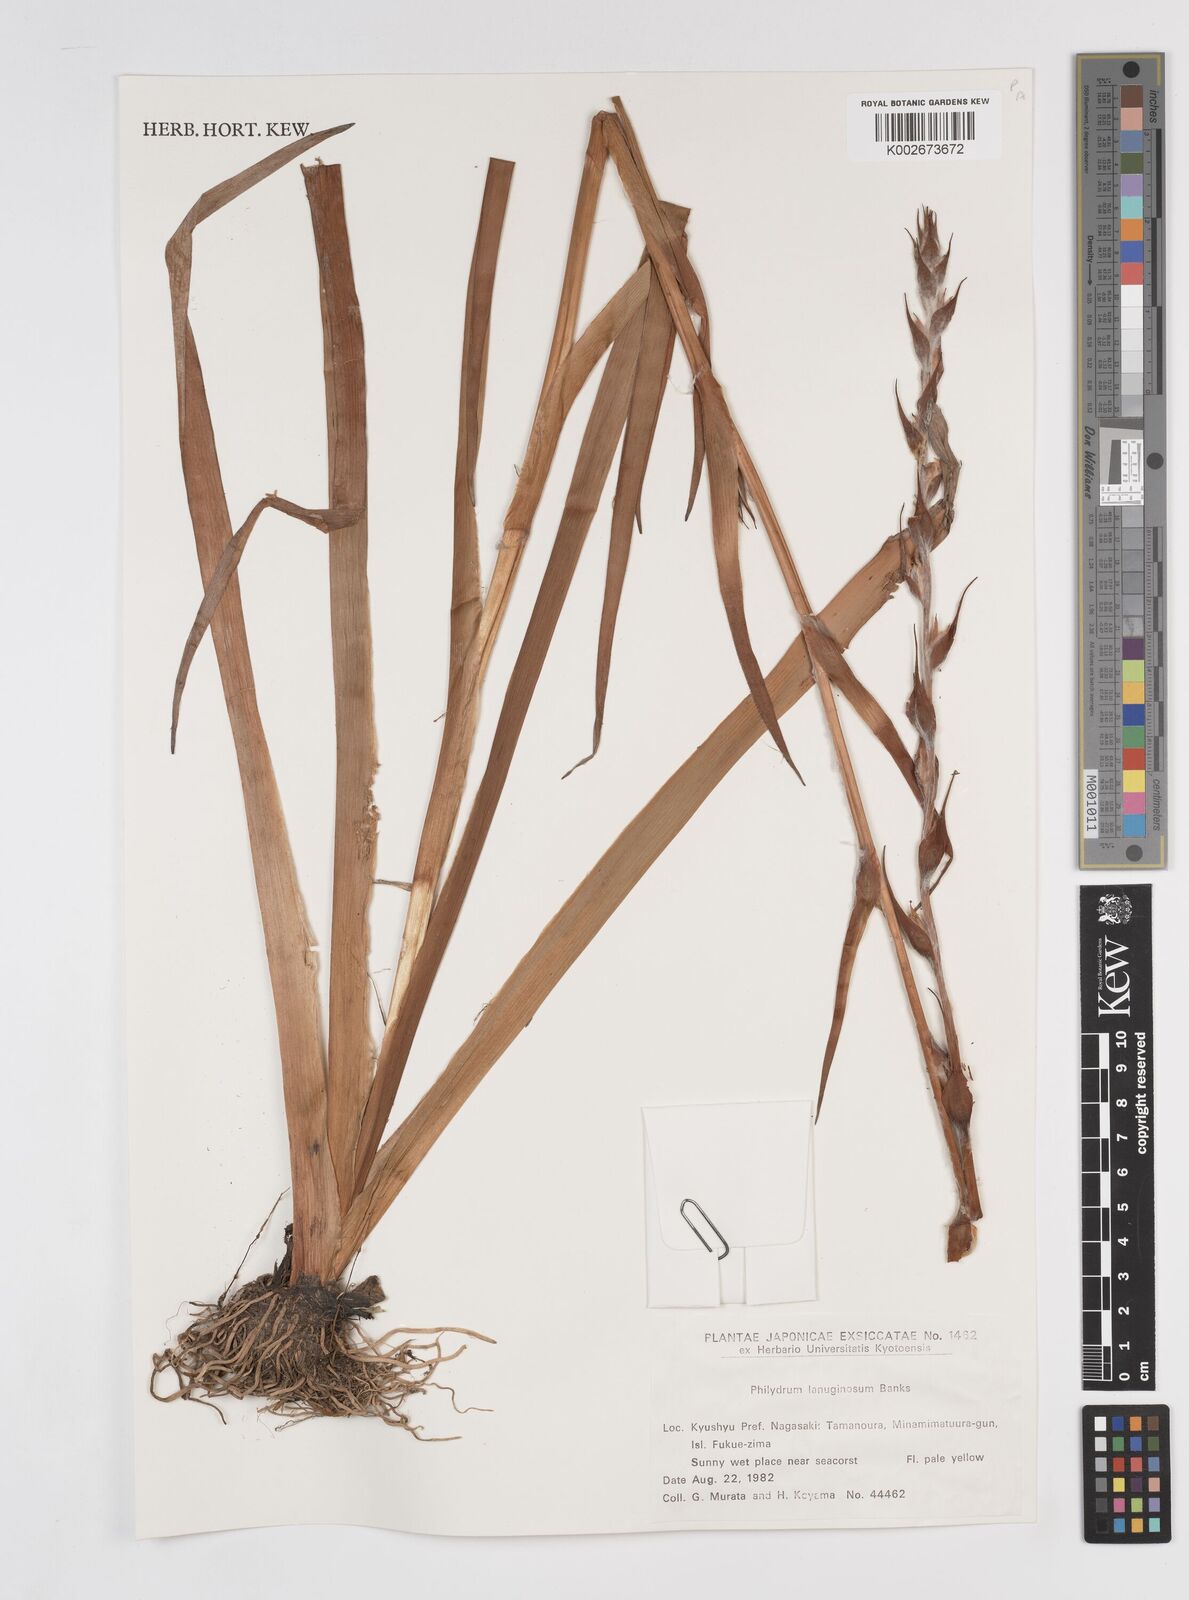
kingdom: Plantae
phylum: Tracheophyta
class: Liliopsida
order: Commelinales
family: Philydraceae
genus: Philydrum
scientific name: Philydrum lanuginosum
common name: Woolly frog's mouth
